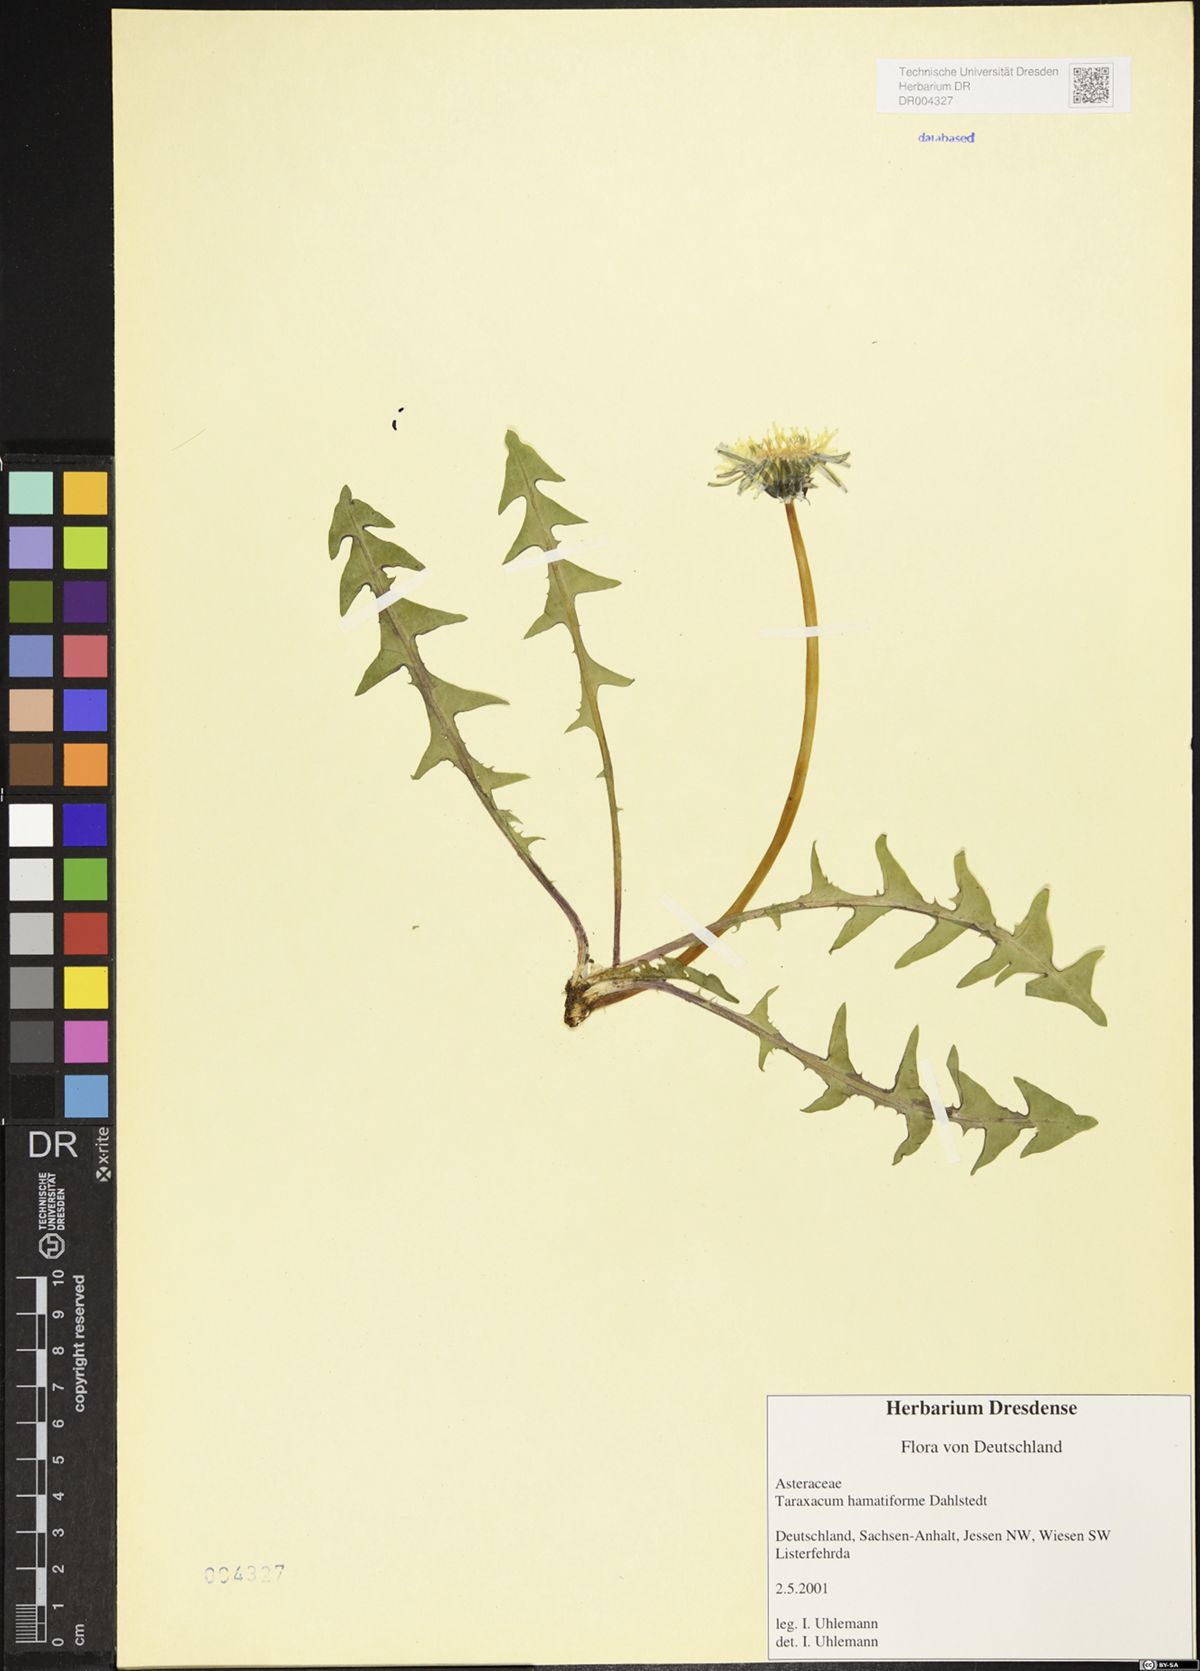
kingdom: Plantae
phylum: Tracheophyta
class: Magnoliopsida
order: Asterales
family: Asteraceae
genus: Taraxacum
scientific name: Taraxacum hamatiforme
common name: Asymmetrical hook-lobed dandelion
